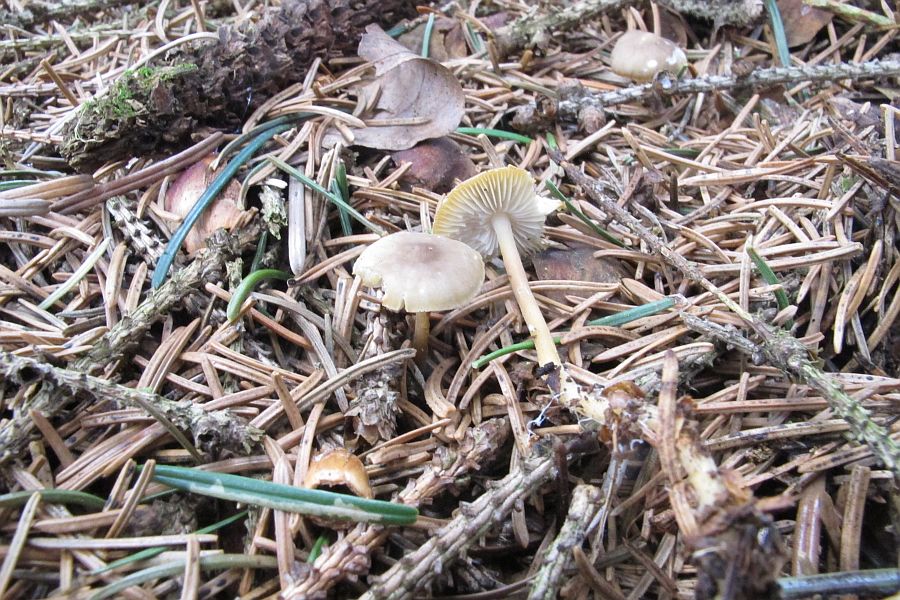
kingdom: Fungi
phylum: Basidiomycota
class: Agaricomycetes
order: Agaricales
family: Physalacriaceae
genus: Strobilurus
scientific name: Strobilurus esculentus
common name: gran-koglehat
